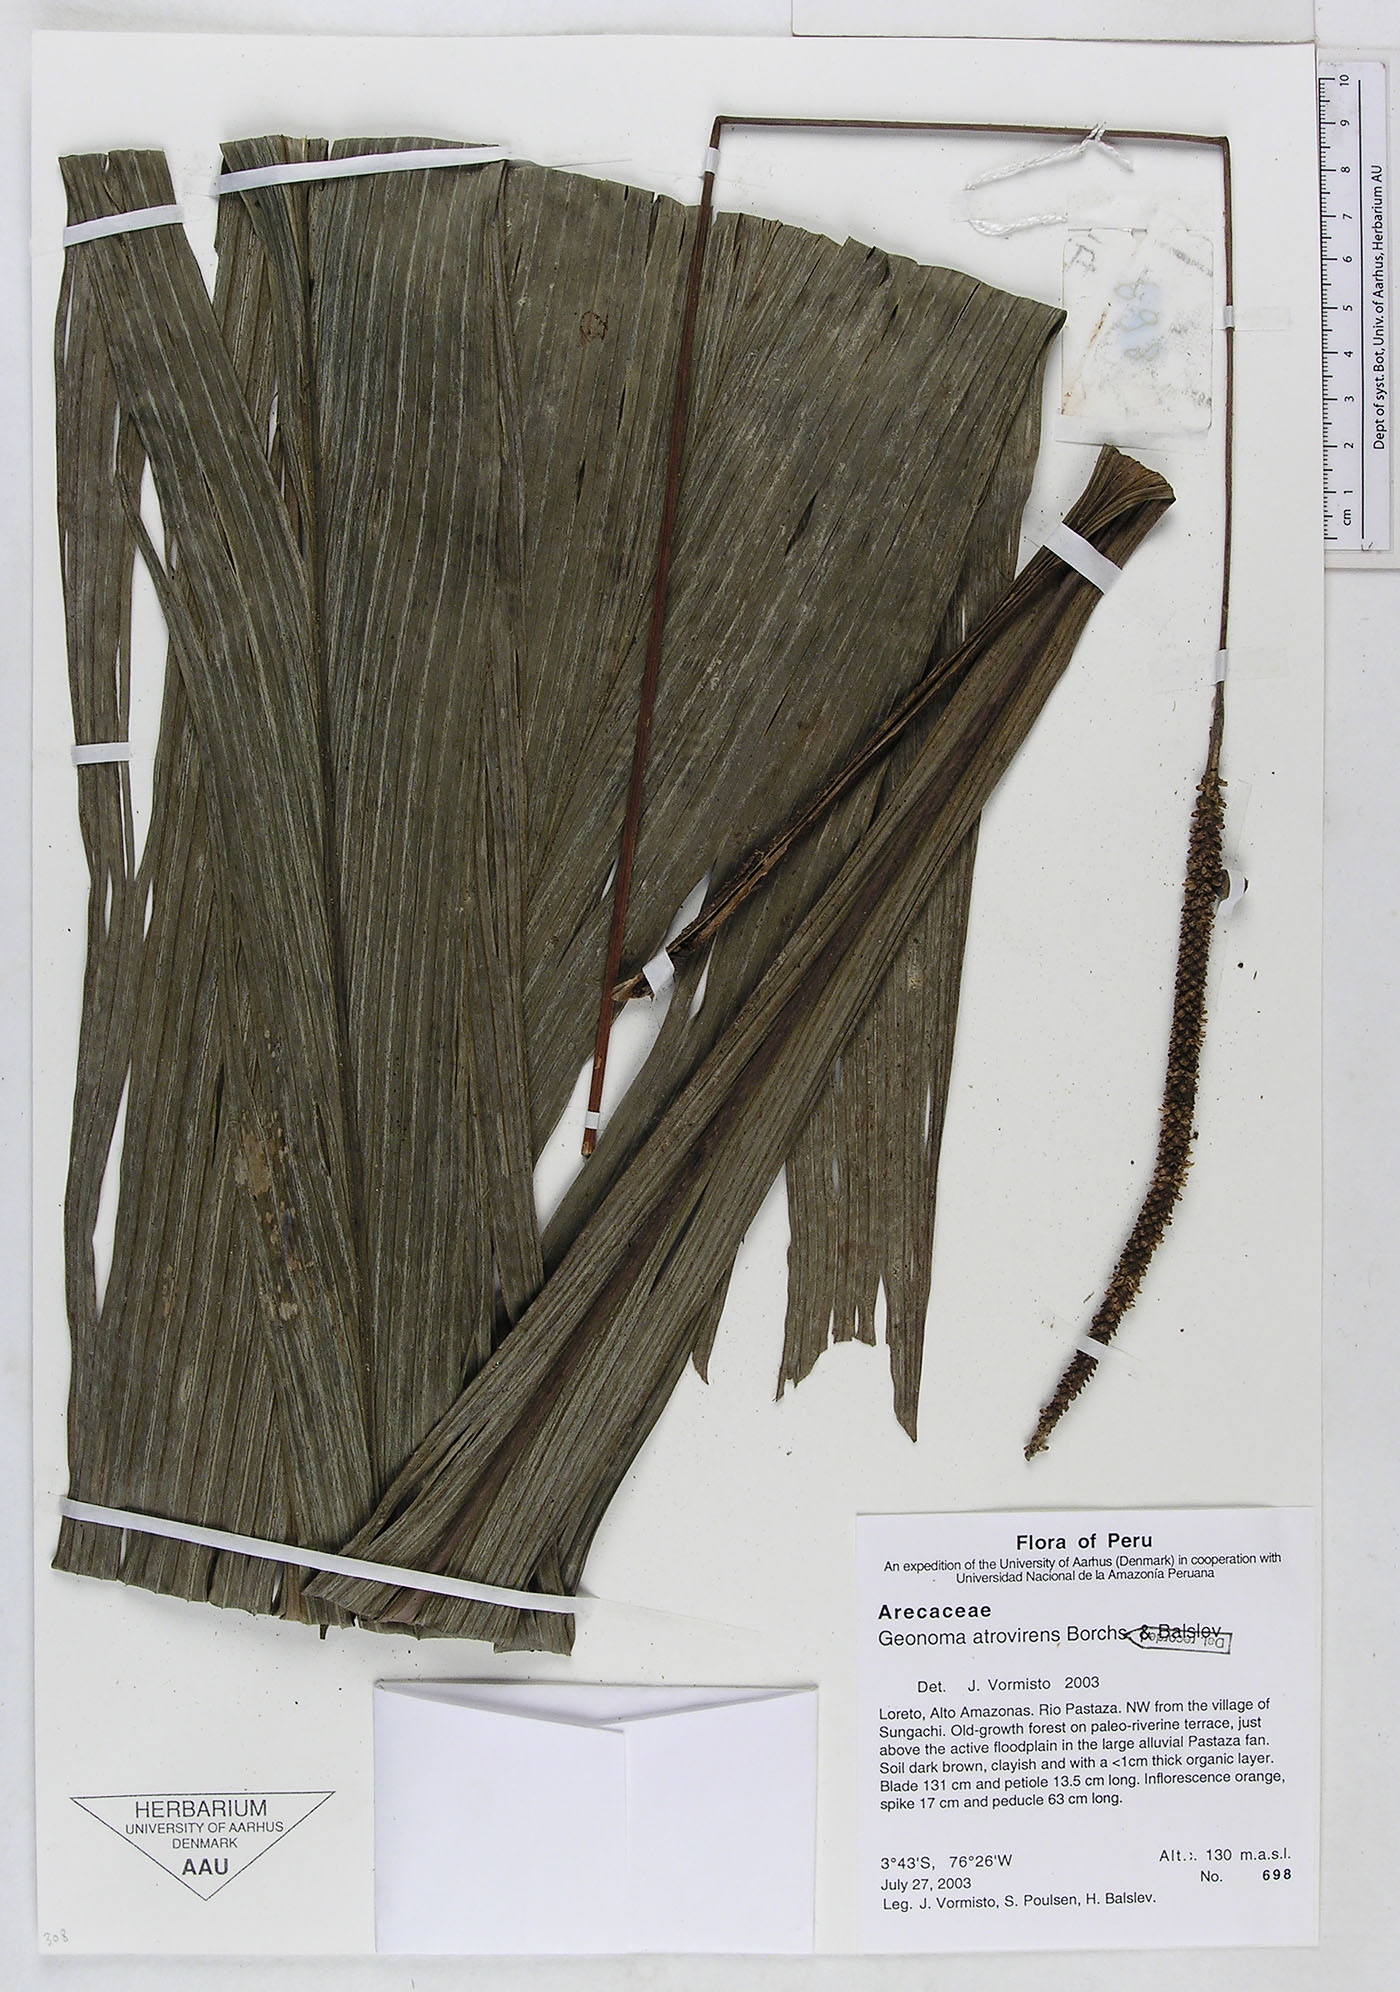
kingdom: Plantae
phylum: Tracheophyta
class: Liliopsida
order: Arecales
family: Arecaceae
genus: Geonoma
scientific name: Geonoma macrostachys
